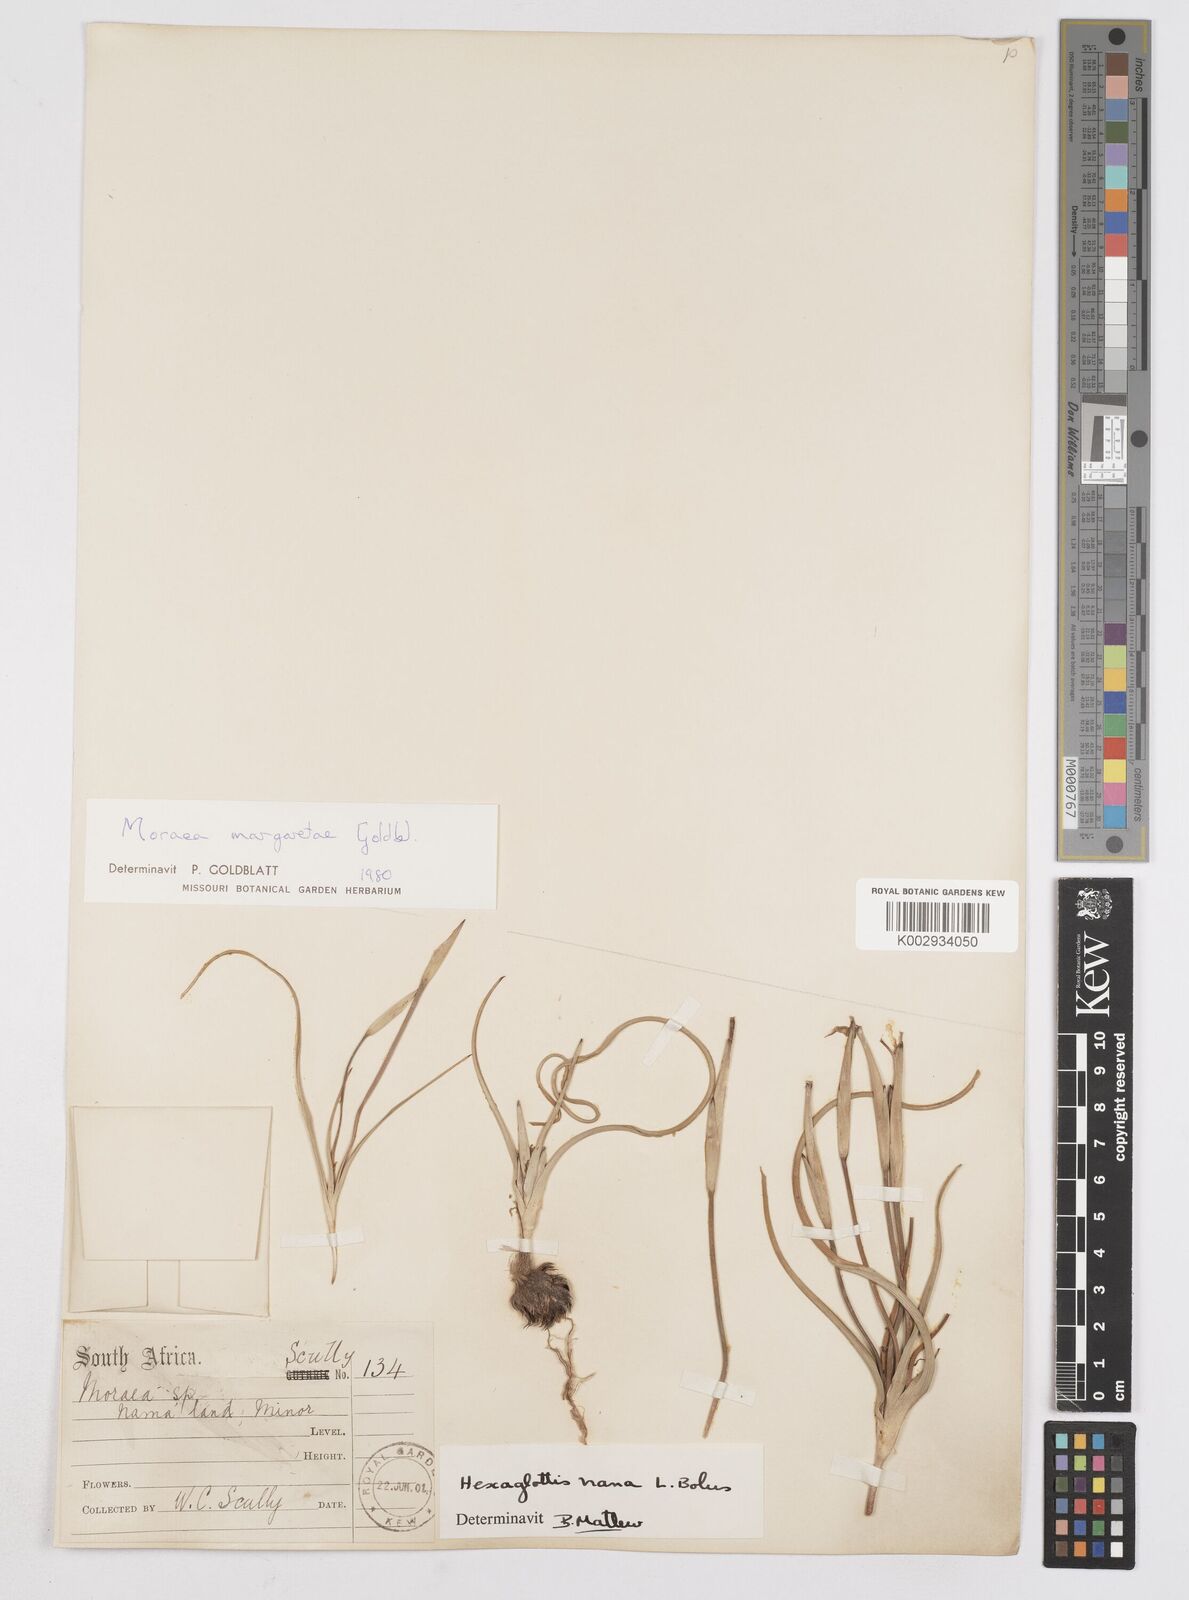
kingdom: Plantae
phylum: Tracheophyta
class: Liliopsida
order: Asparagales
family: Iridaceae
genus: Moraea
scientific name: Moraea margaretae
